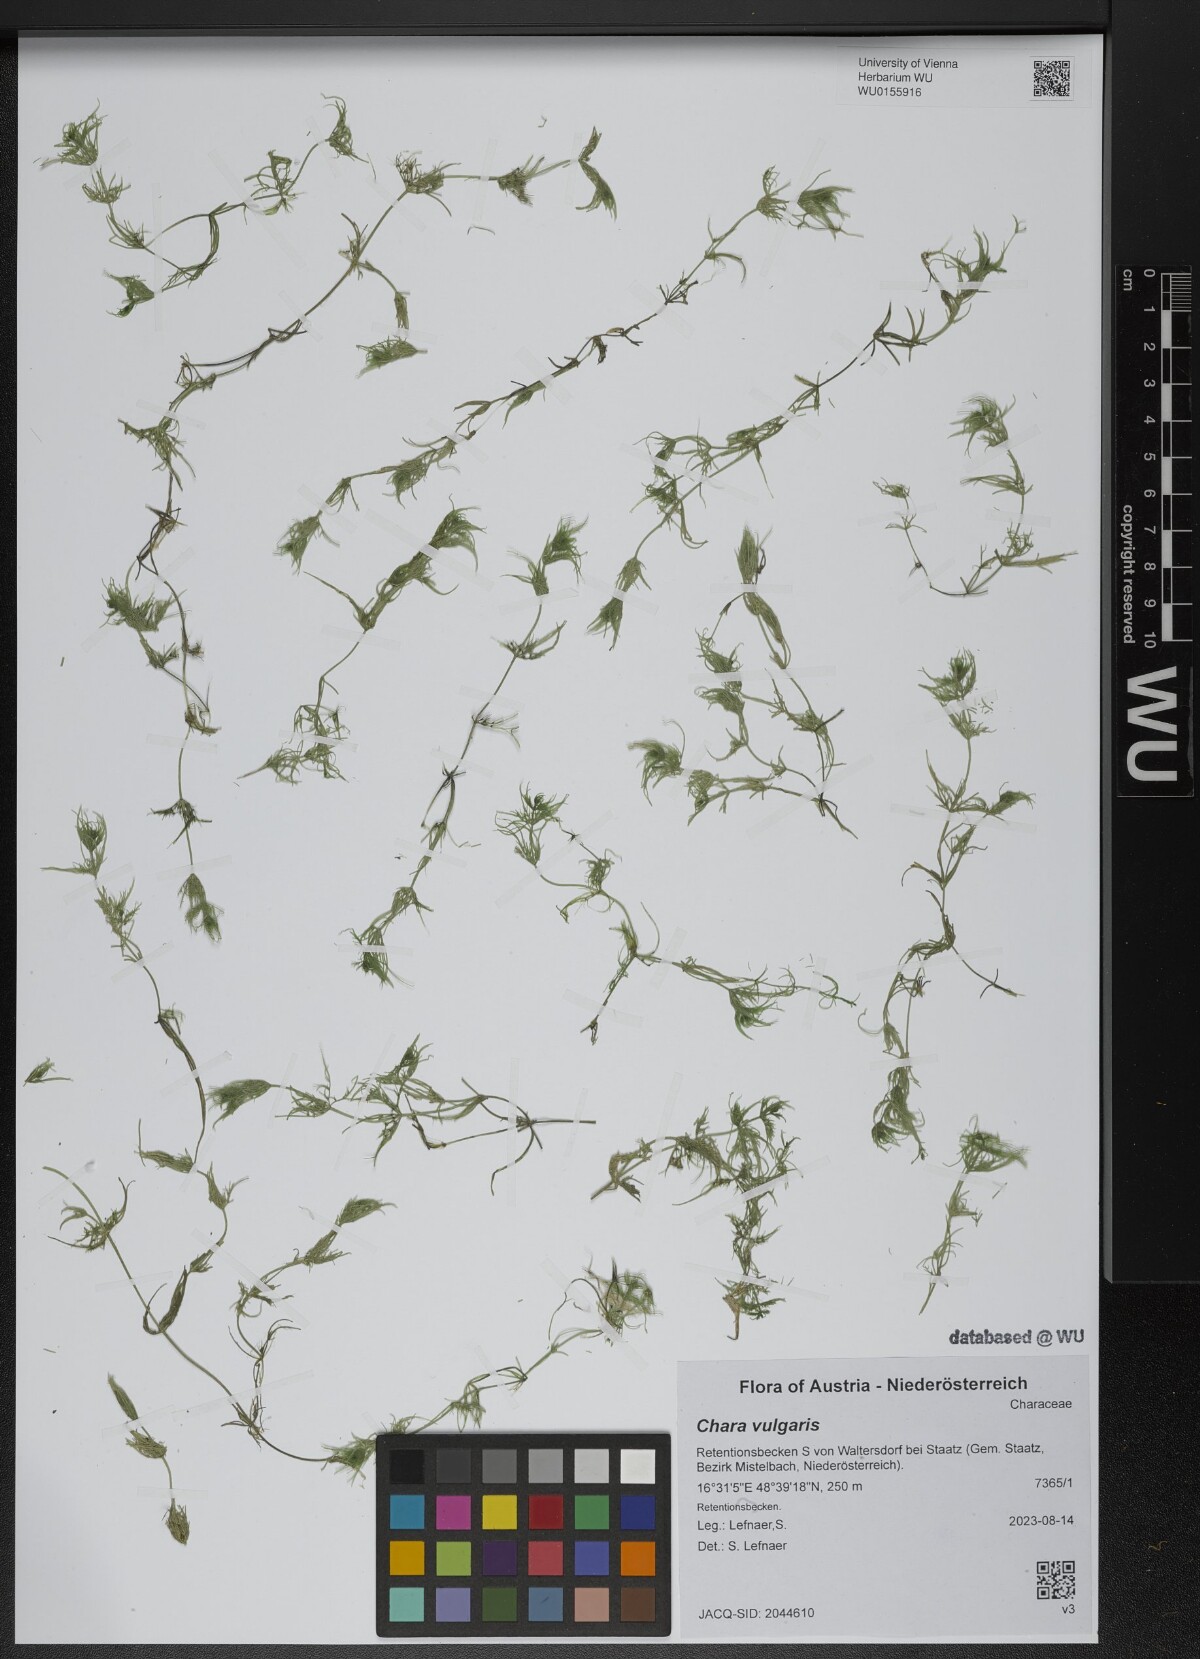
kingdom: Plantae
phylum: Charophyta
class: Charophyceae
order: Charales
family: Characeae
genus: Chara
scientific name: Chara vulgaris
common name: Common stonewort
